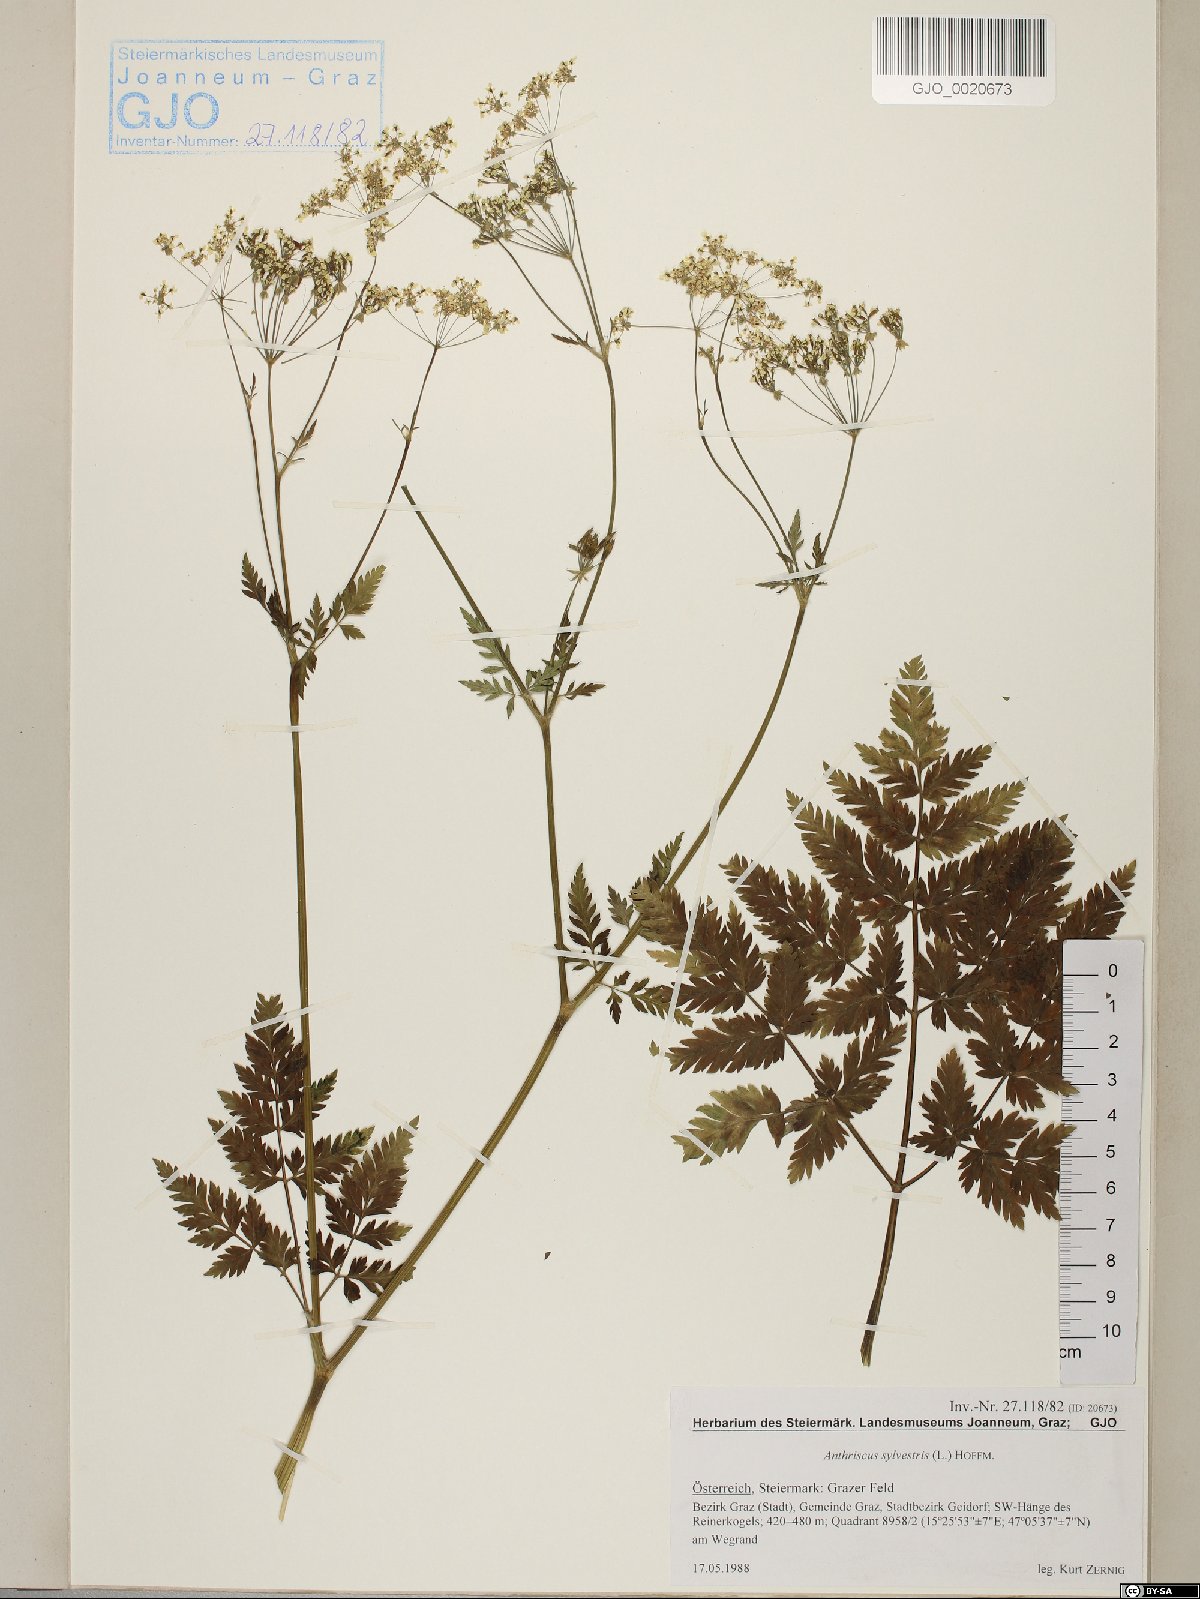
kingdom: Plantae
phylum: Tracheophyta
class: Magnoliopsida
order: Apiales
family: Apiaceae
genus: Anthriscus
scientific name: Anthriscus sylvestris
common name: Cow parsley
